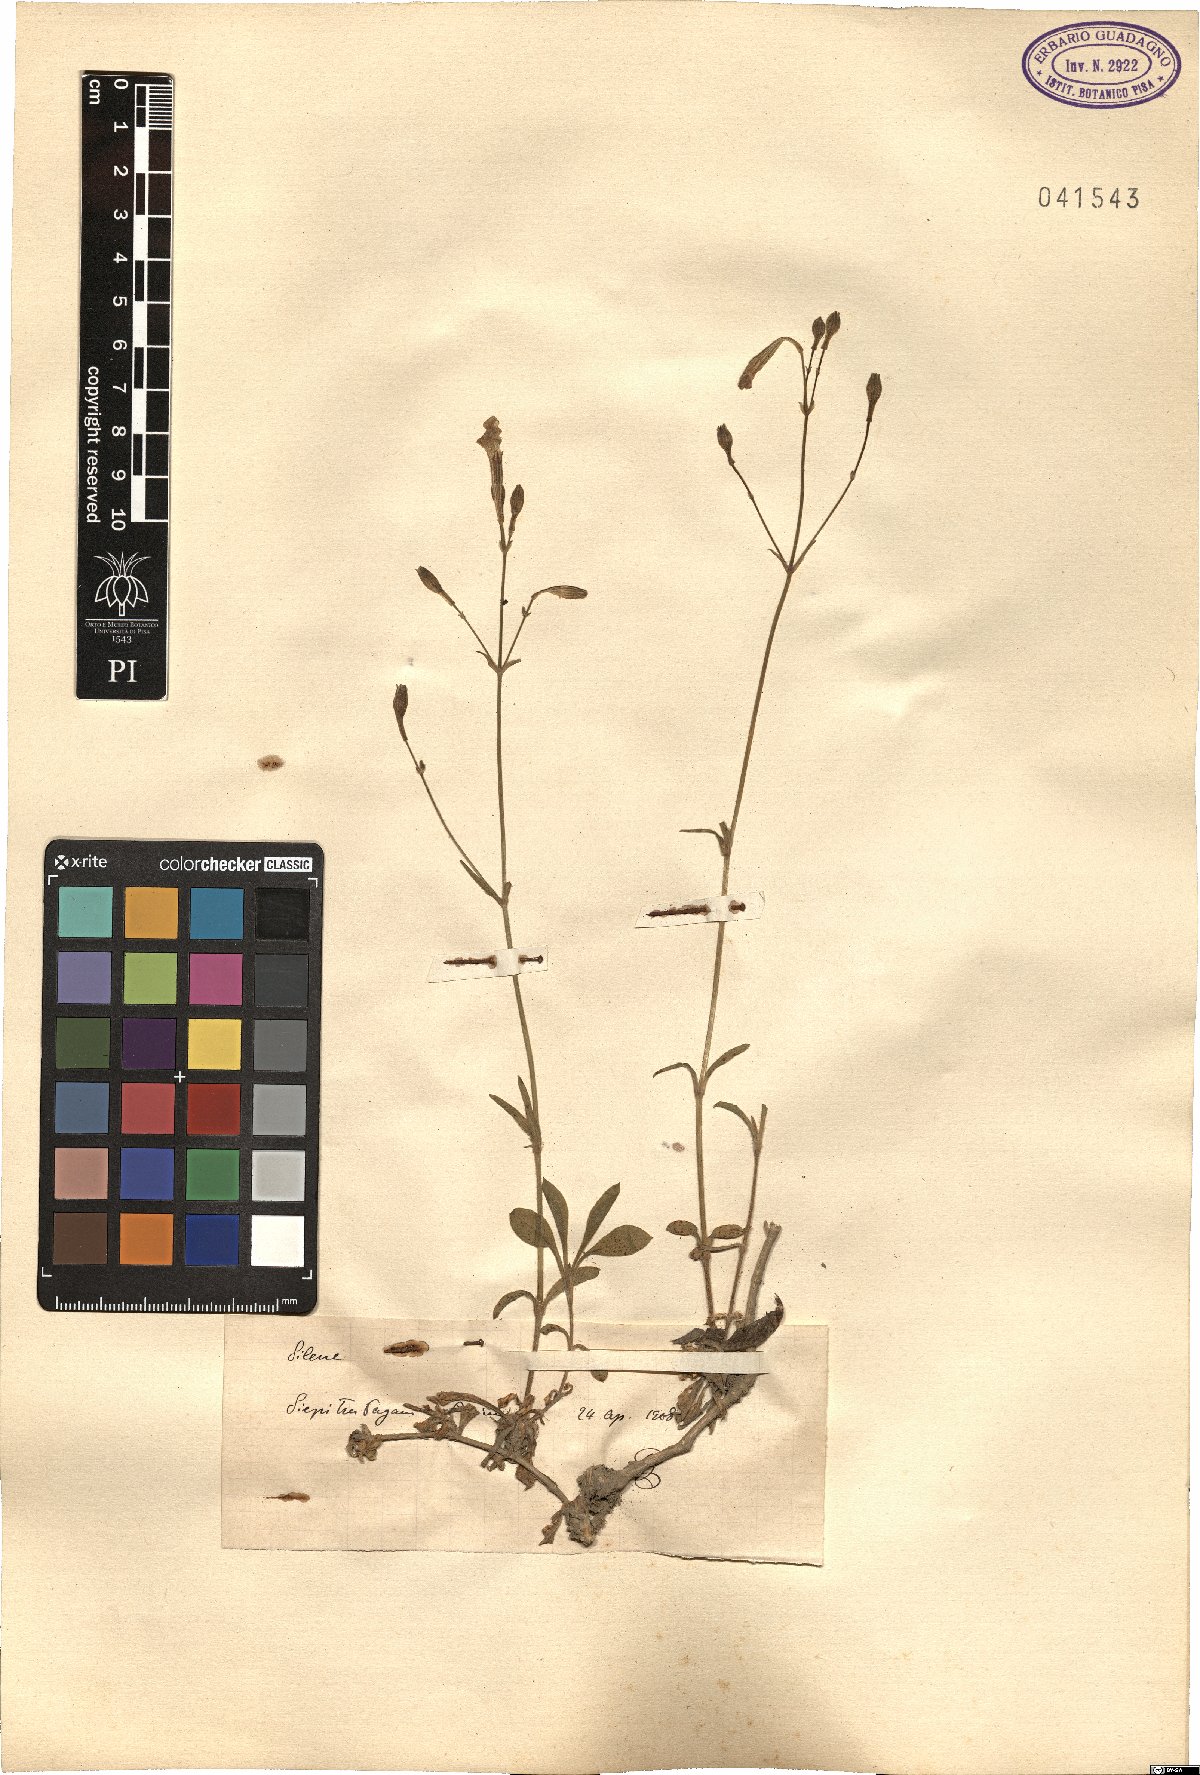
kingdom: Plantae
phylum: Tracheophyta
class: Magnoliopsida
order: Caryophyllales
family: Caryophyllaceae
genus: Silene
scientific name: Silene
